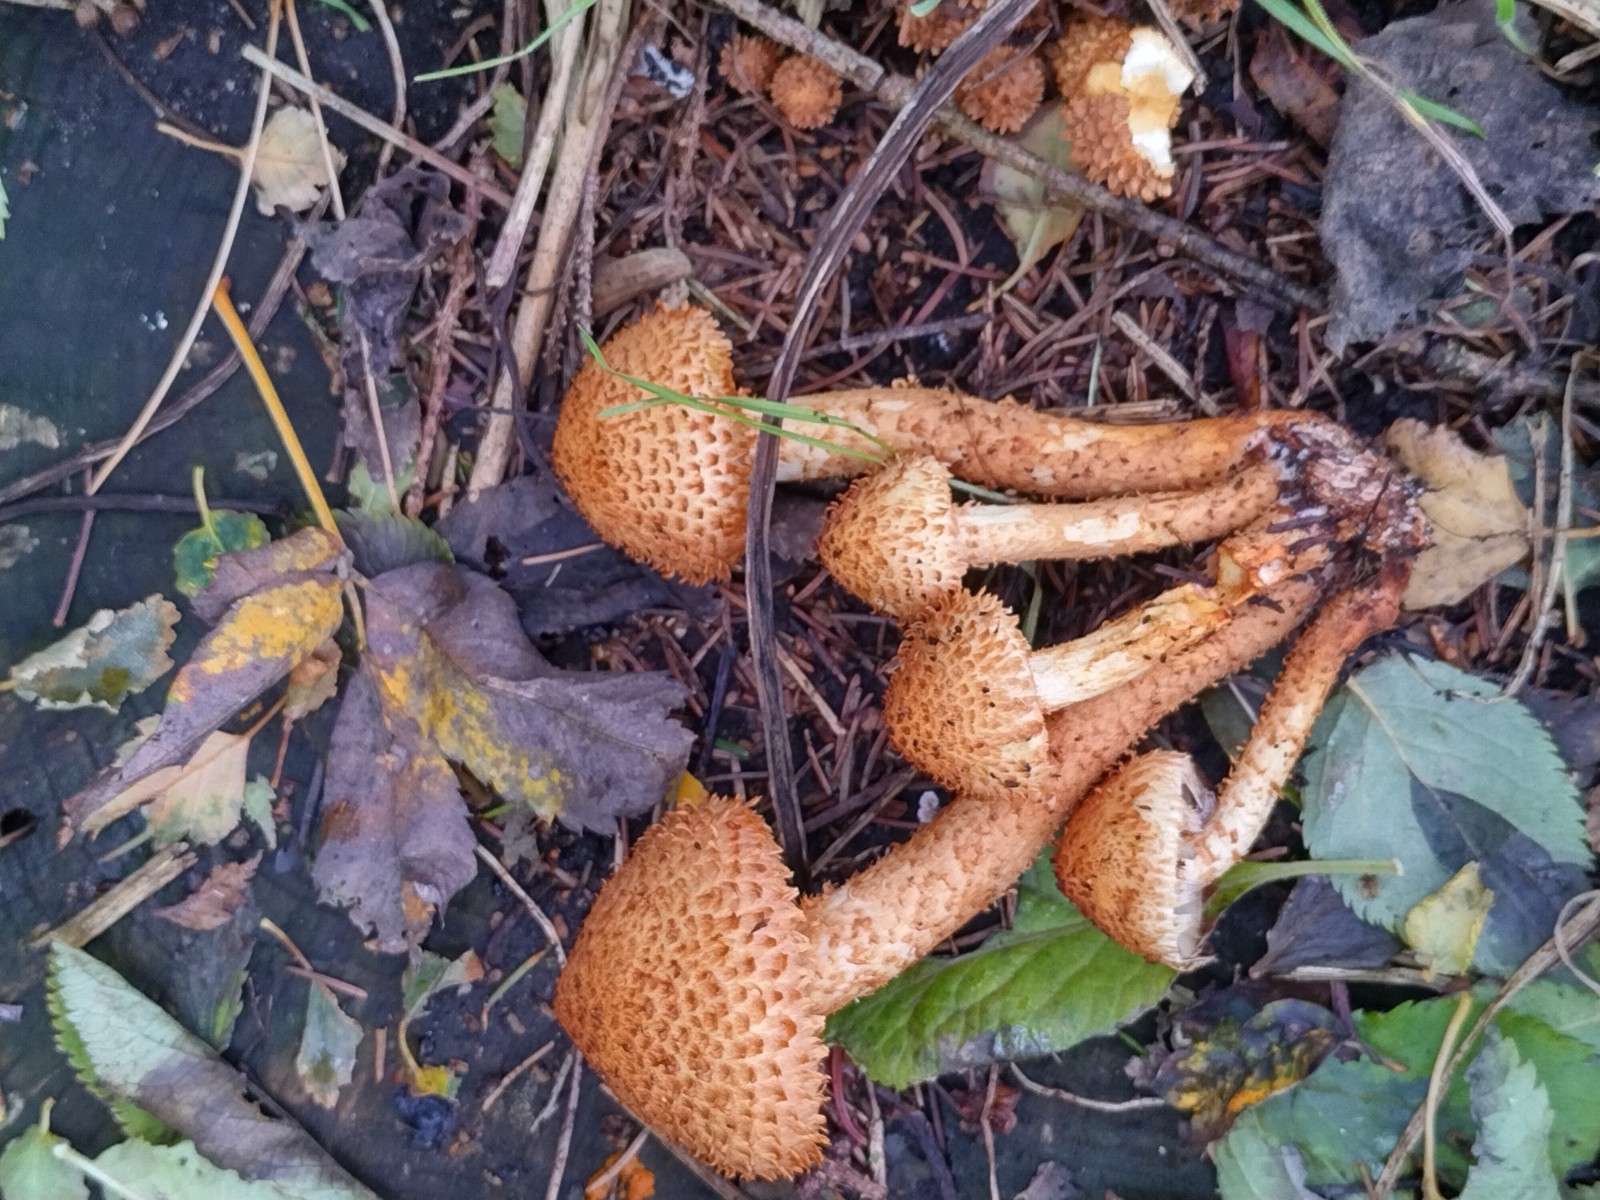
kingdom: Fungi
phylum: Basidiomycota
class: Agaricomycetes
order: Agaricales
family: Strophariaceae
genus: Pholiota
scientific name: Pholiota squarrosa
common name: krumskællet skælhat
